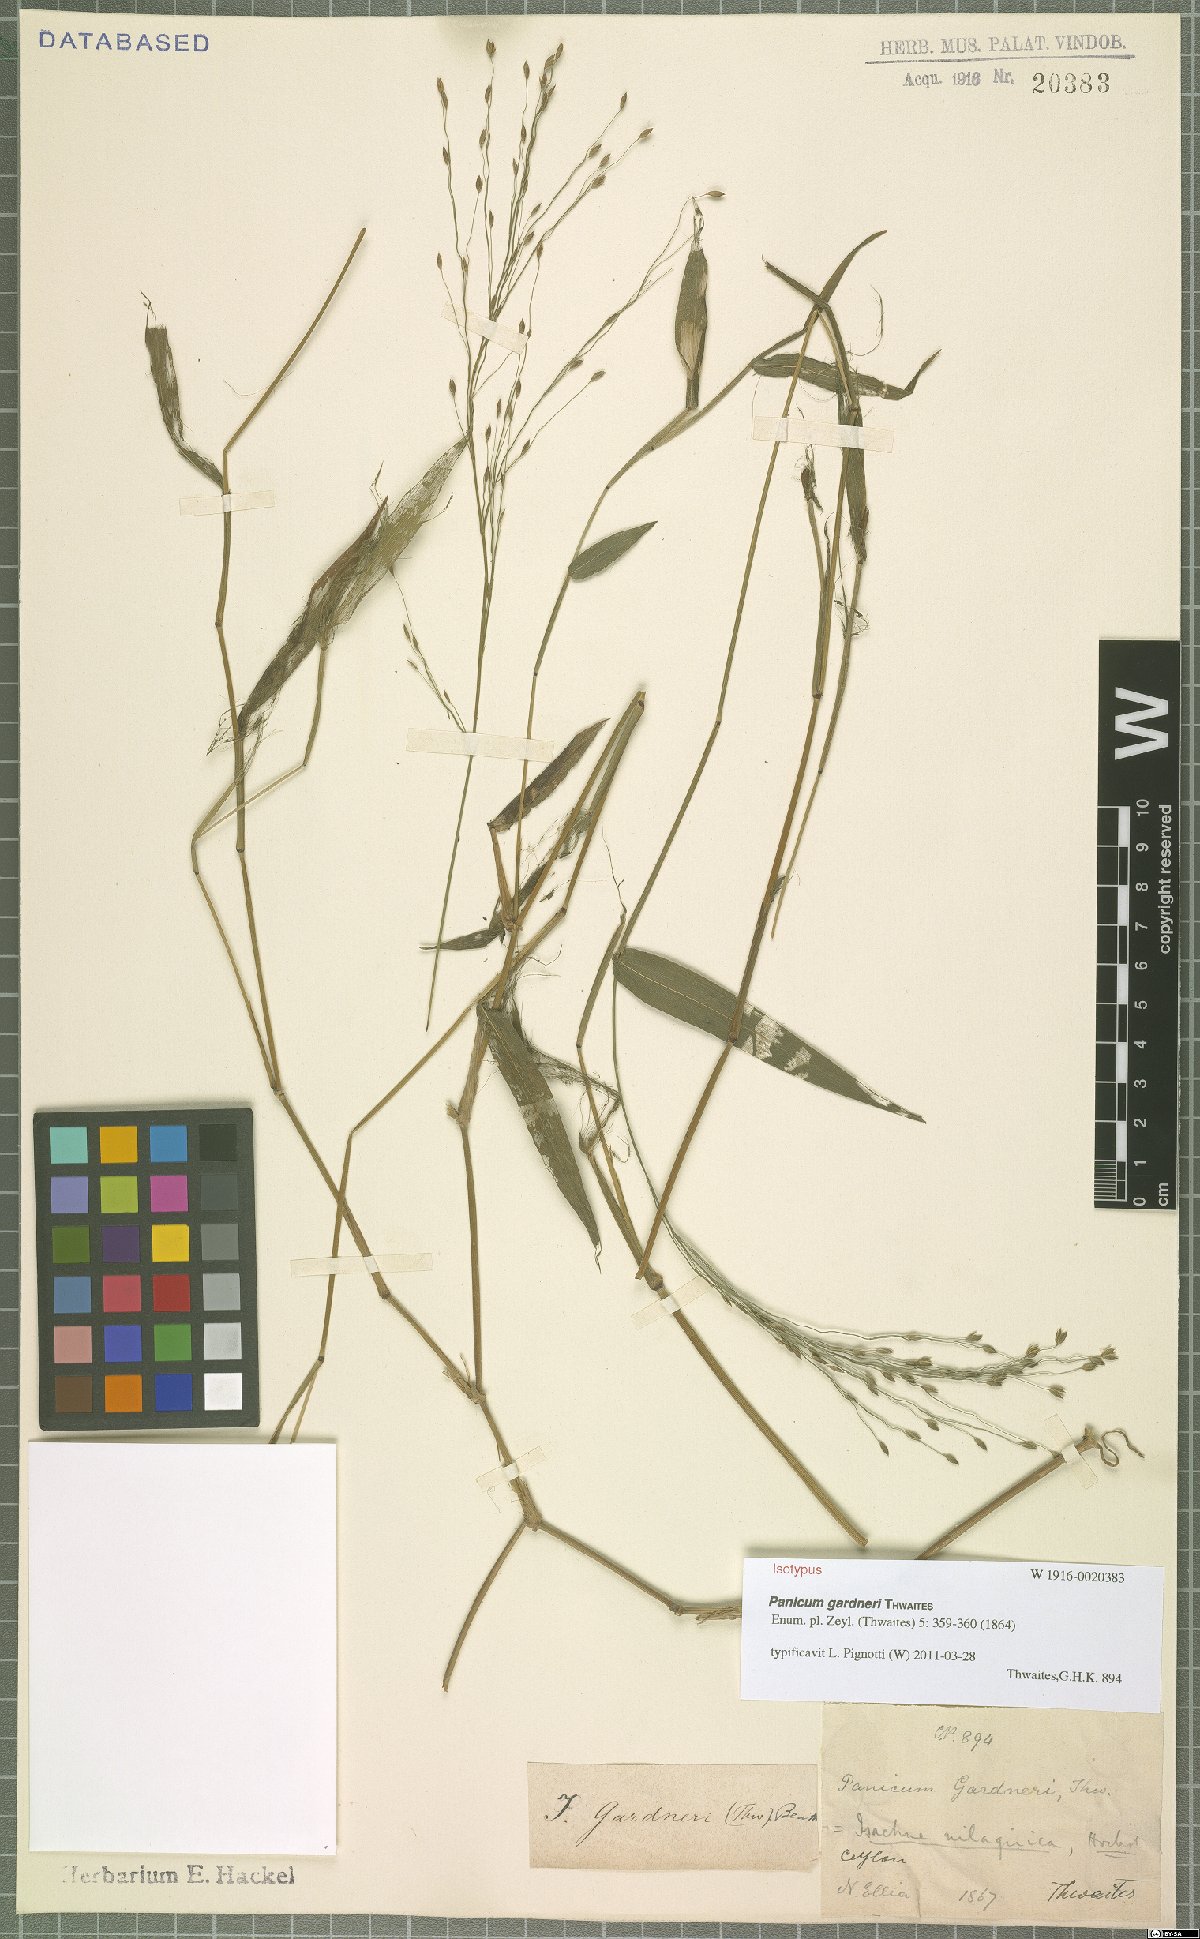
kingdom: Plantae
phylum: Tracheophyta
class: Liliopsida
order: Poales
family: Poaceae
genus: Panicum
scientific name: Panicum gardneri
